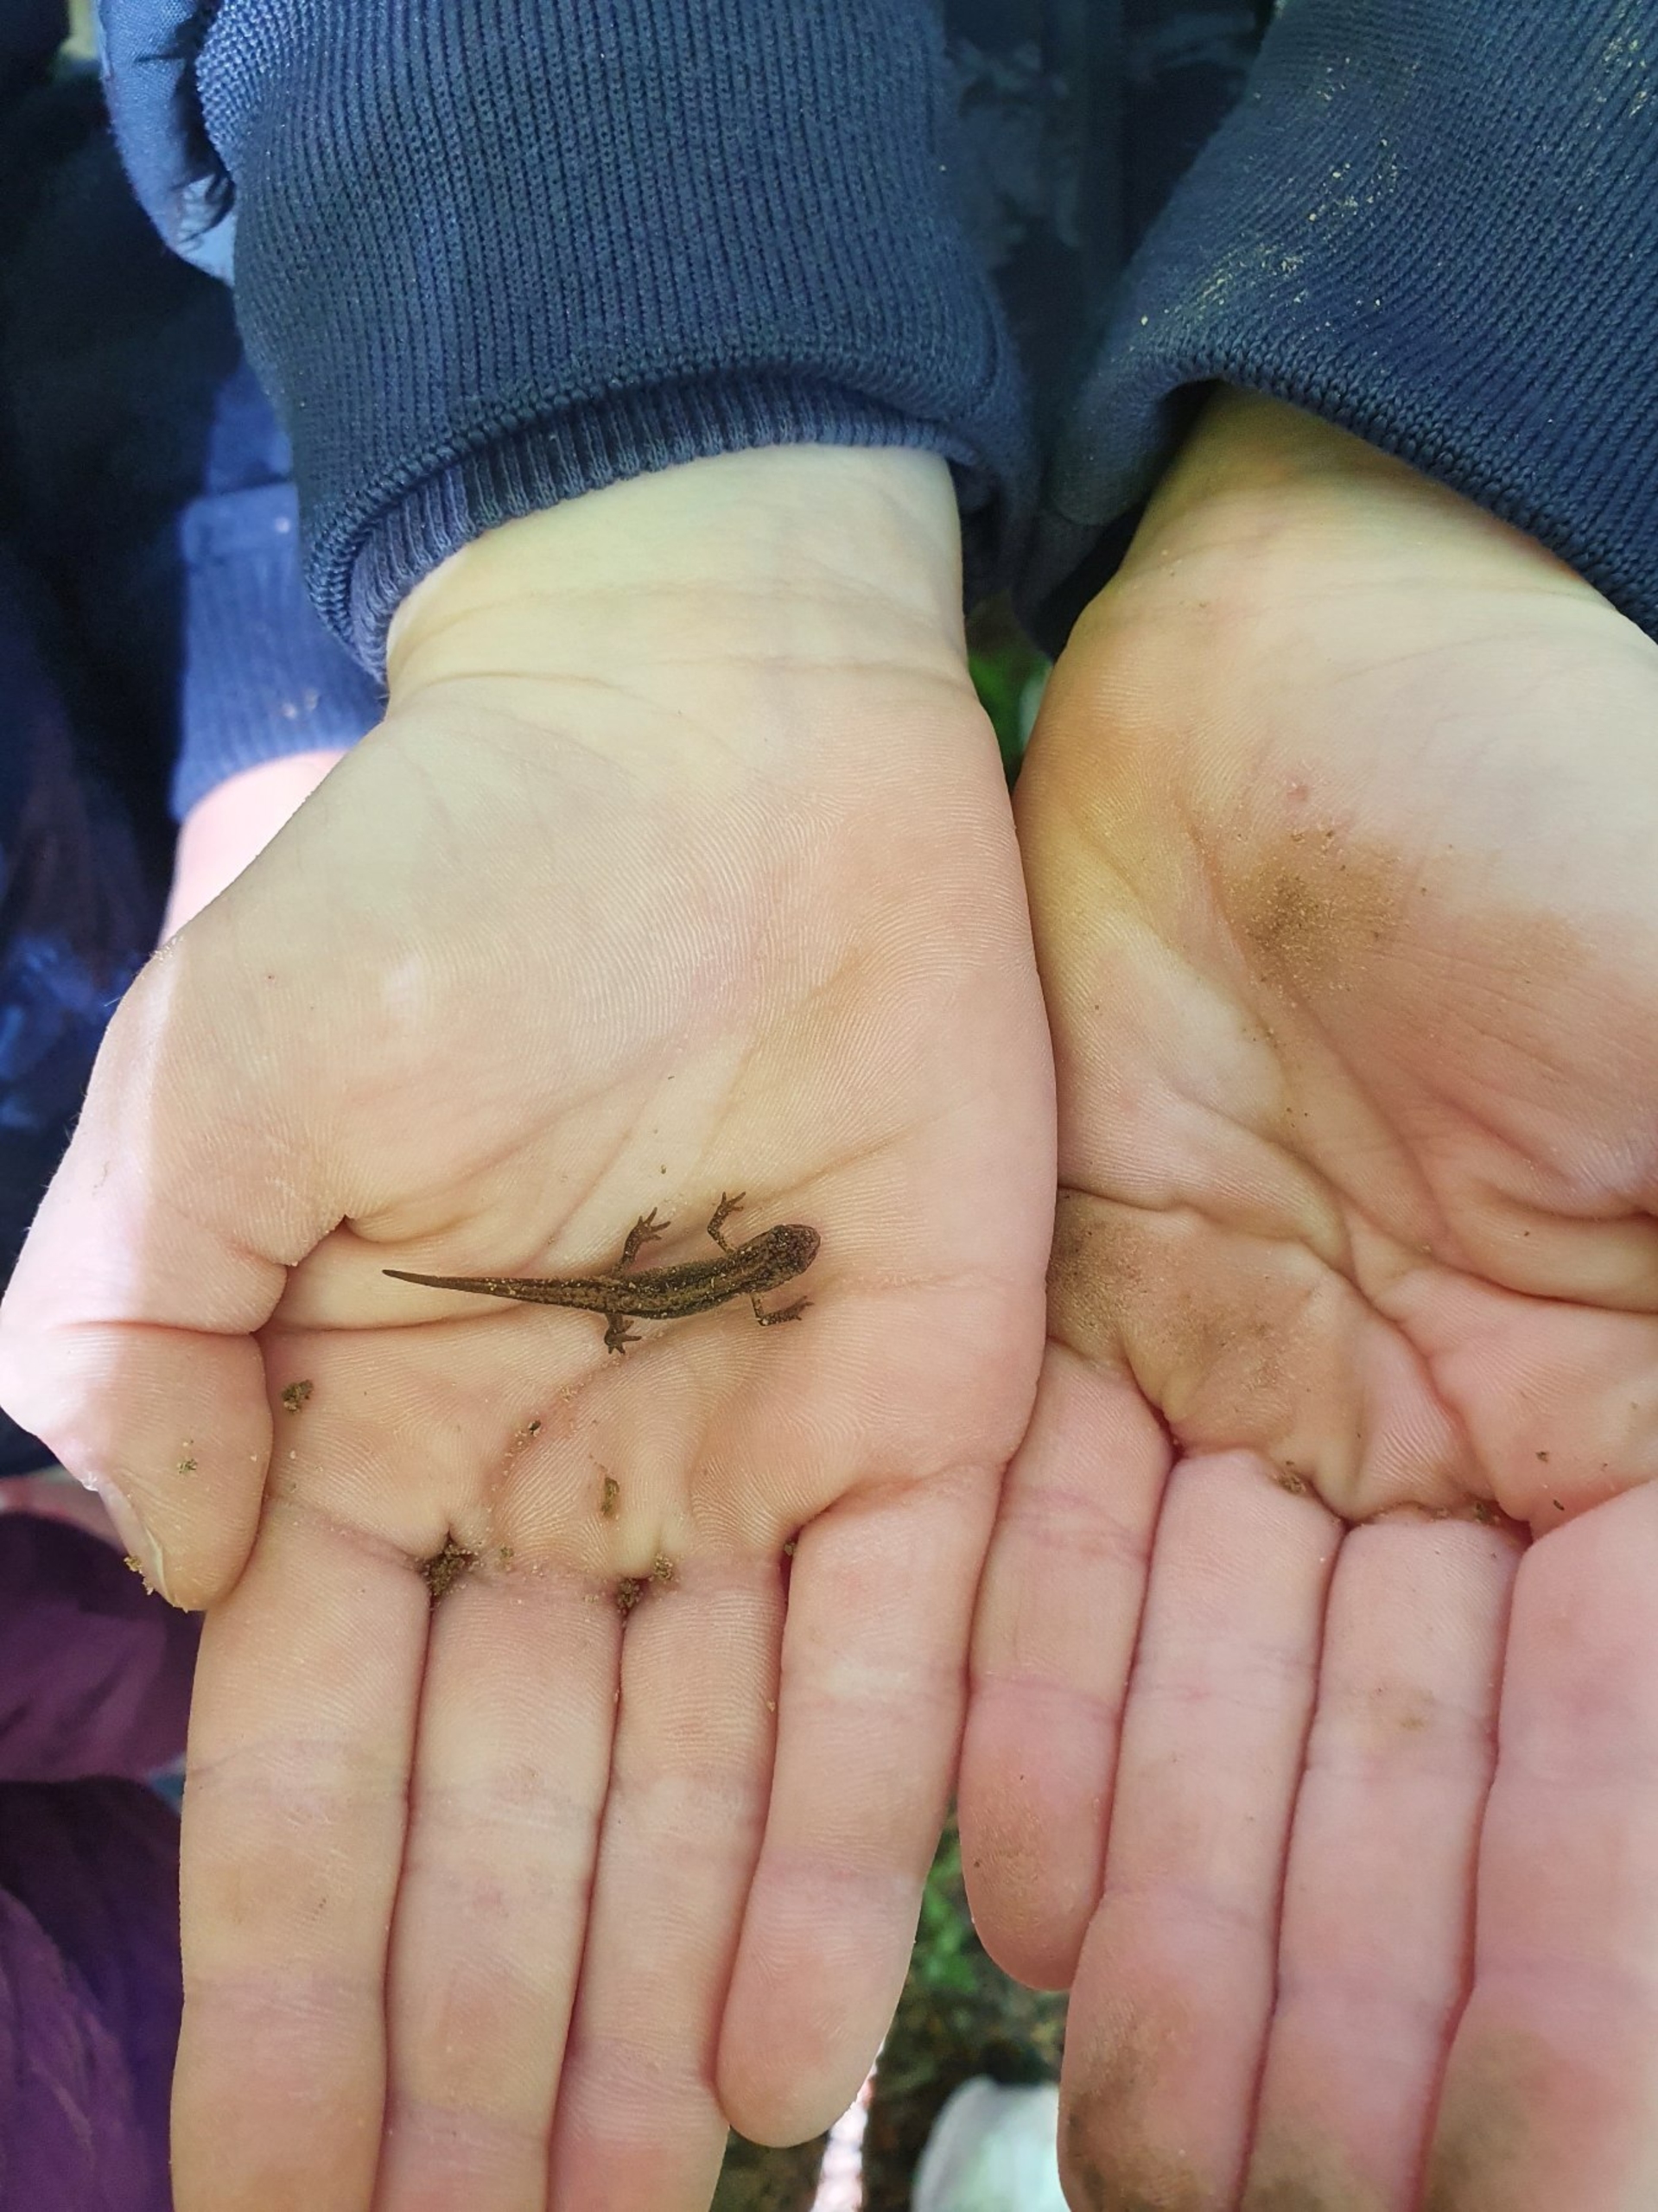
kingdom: Animalia
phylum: Chordata
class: Amphibia
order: Caudata
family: Salamandridae
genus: Lissotriton
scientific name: Lissotriton vulgaris
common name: Lille vandsalamander
